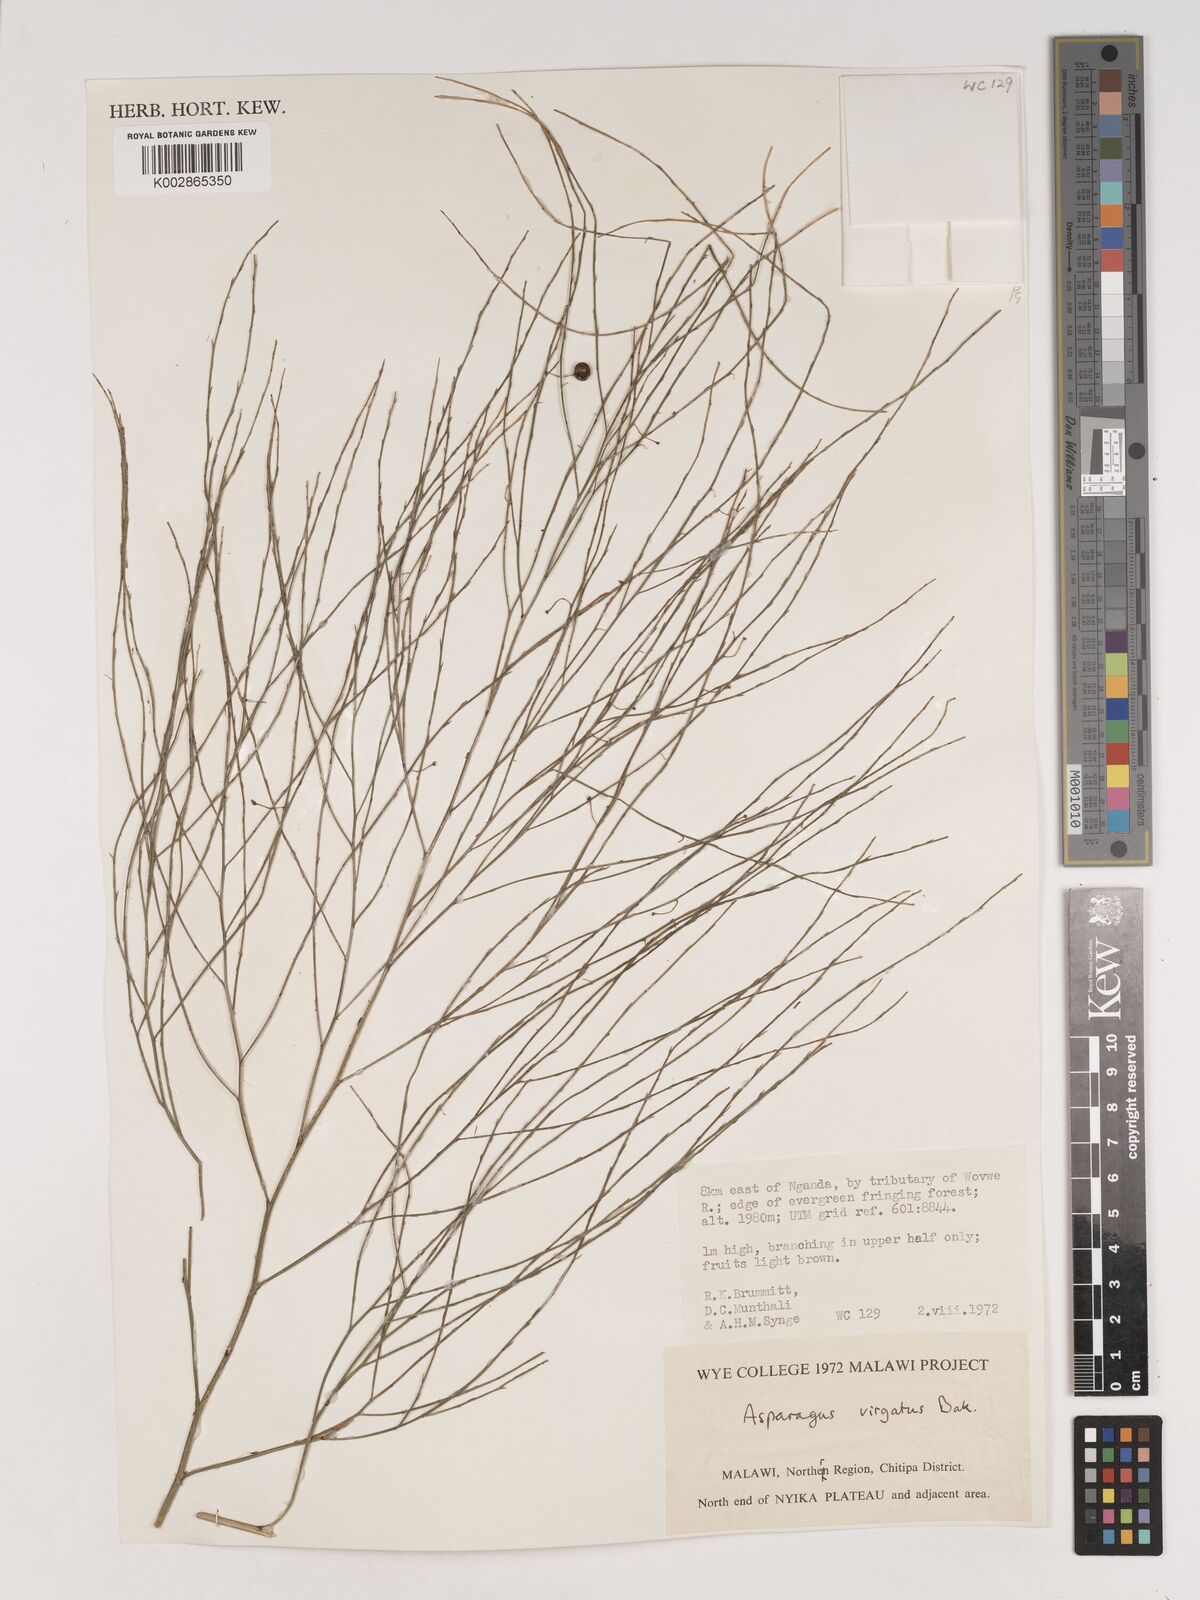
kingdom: Plantae
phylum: Tracheophyta
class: Liliopsida
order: Asparagales
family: Asparagaceae
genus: Asparagus
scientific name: Asparagus virgatus
